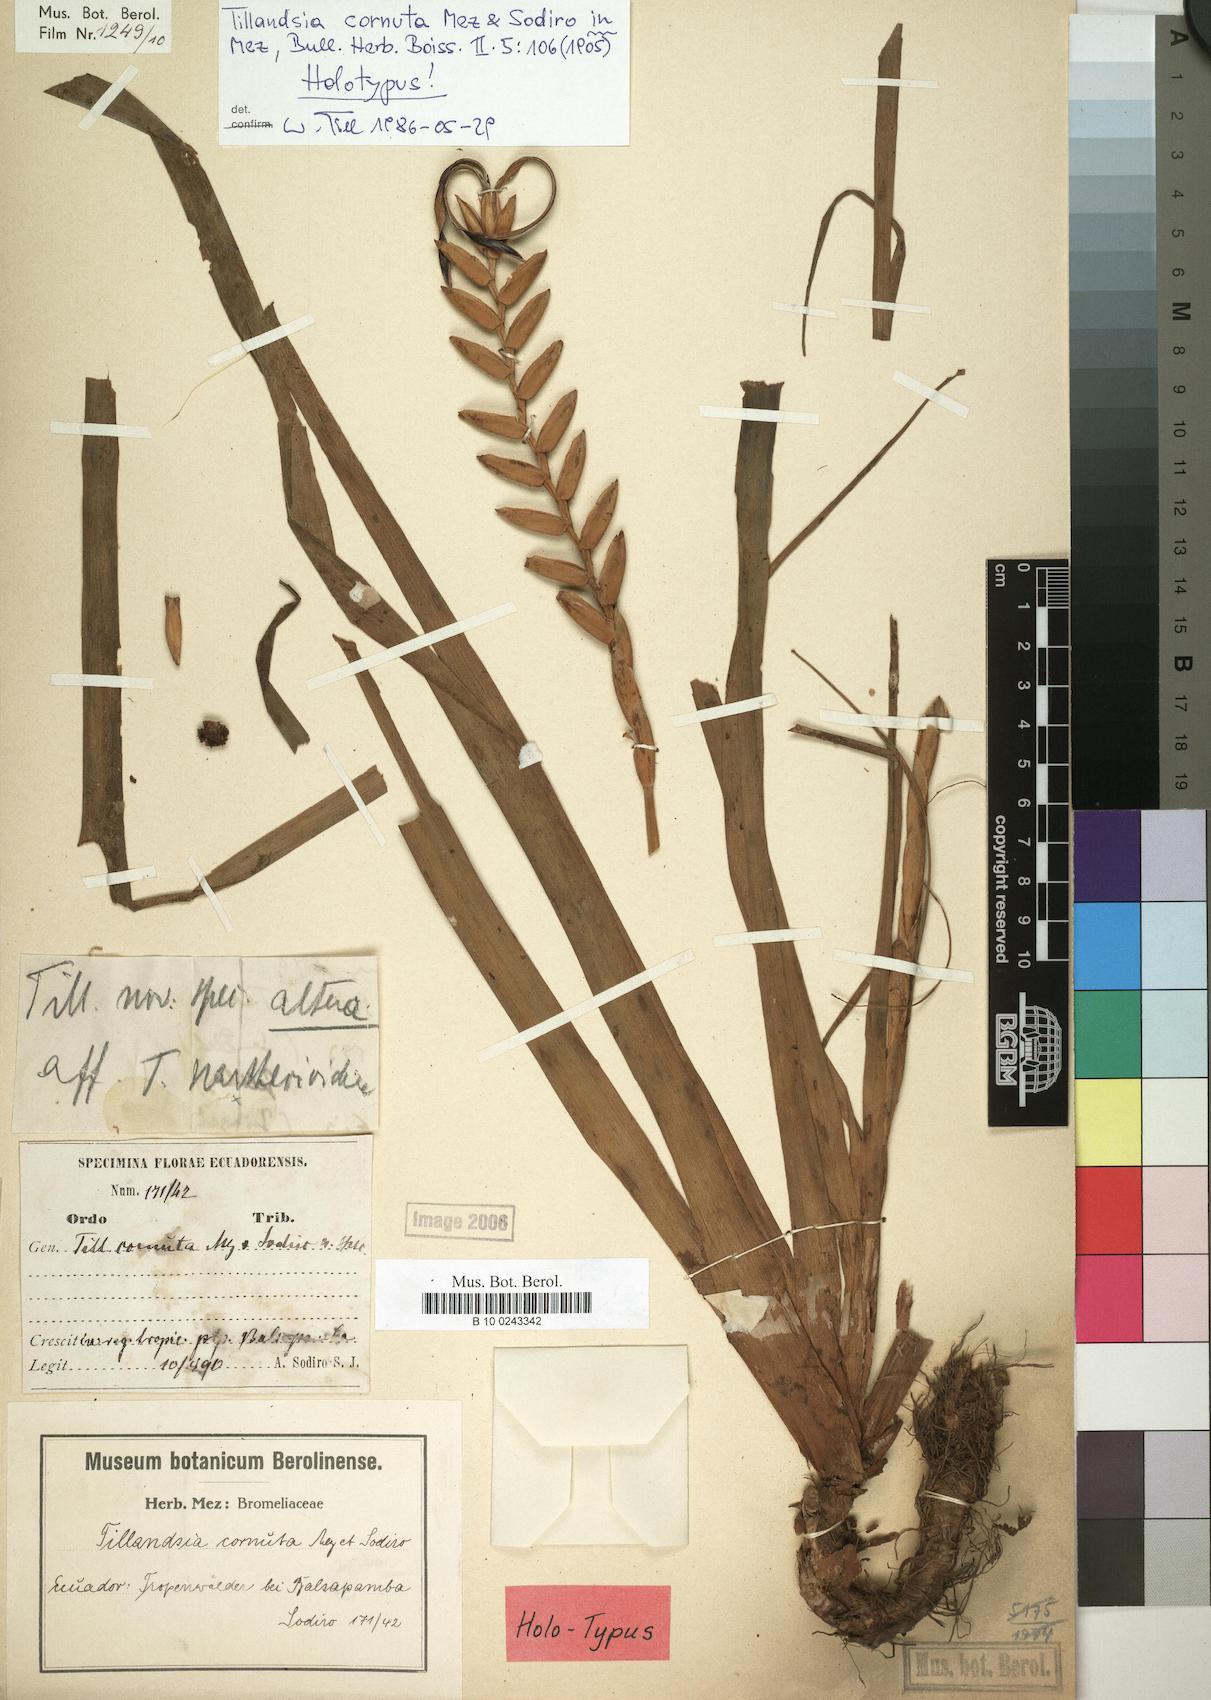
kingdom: Plantae
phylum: Tracheophyta
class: Liliopsida
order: Poales
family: Bromeliaceae
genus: Lemeltonia
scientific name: Lemeltonia cornuta
